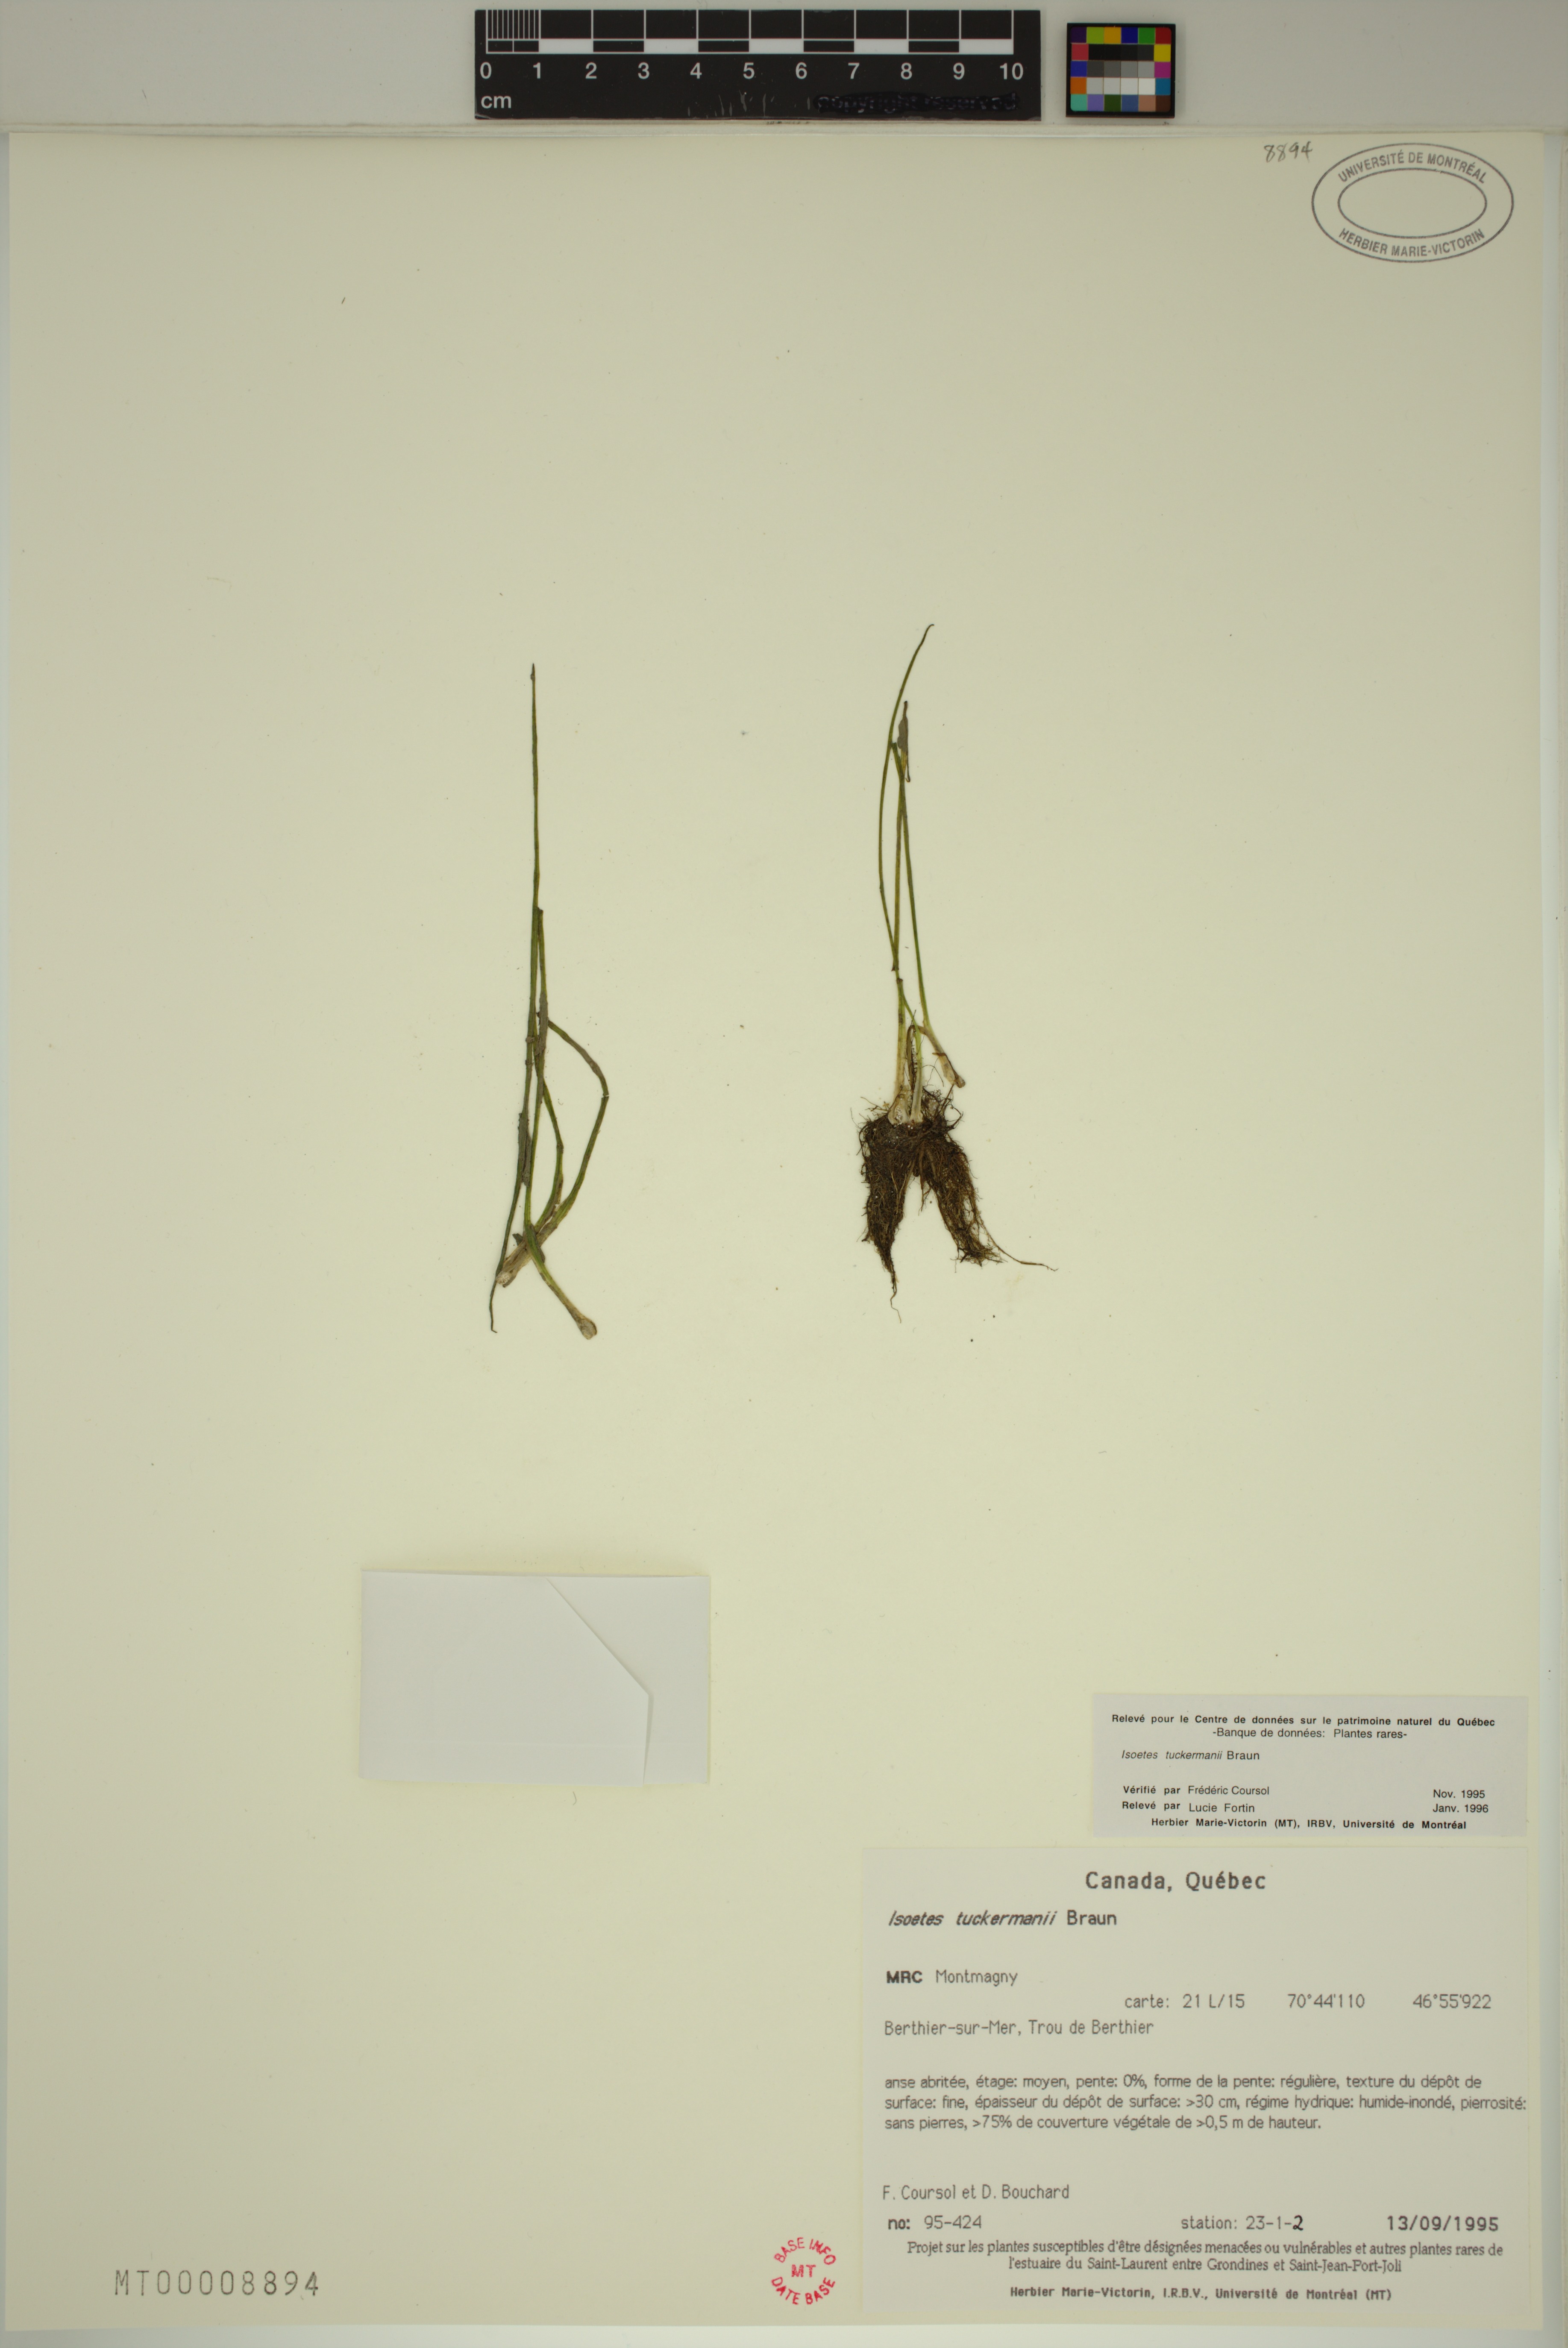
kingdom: Plantae
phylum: Tracheophyta
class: Lycopodiopsida
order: Isoetales
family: Isoetaceae
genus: Isoetes
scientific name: Isoetes laurentiana
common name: St. lawrence quillwort
